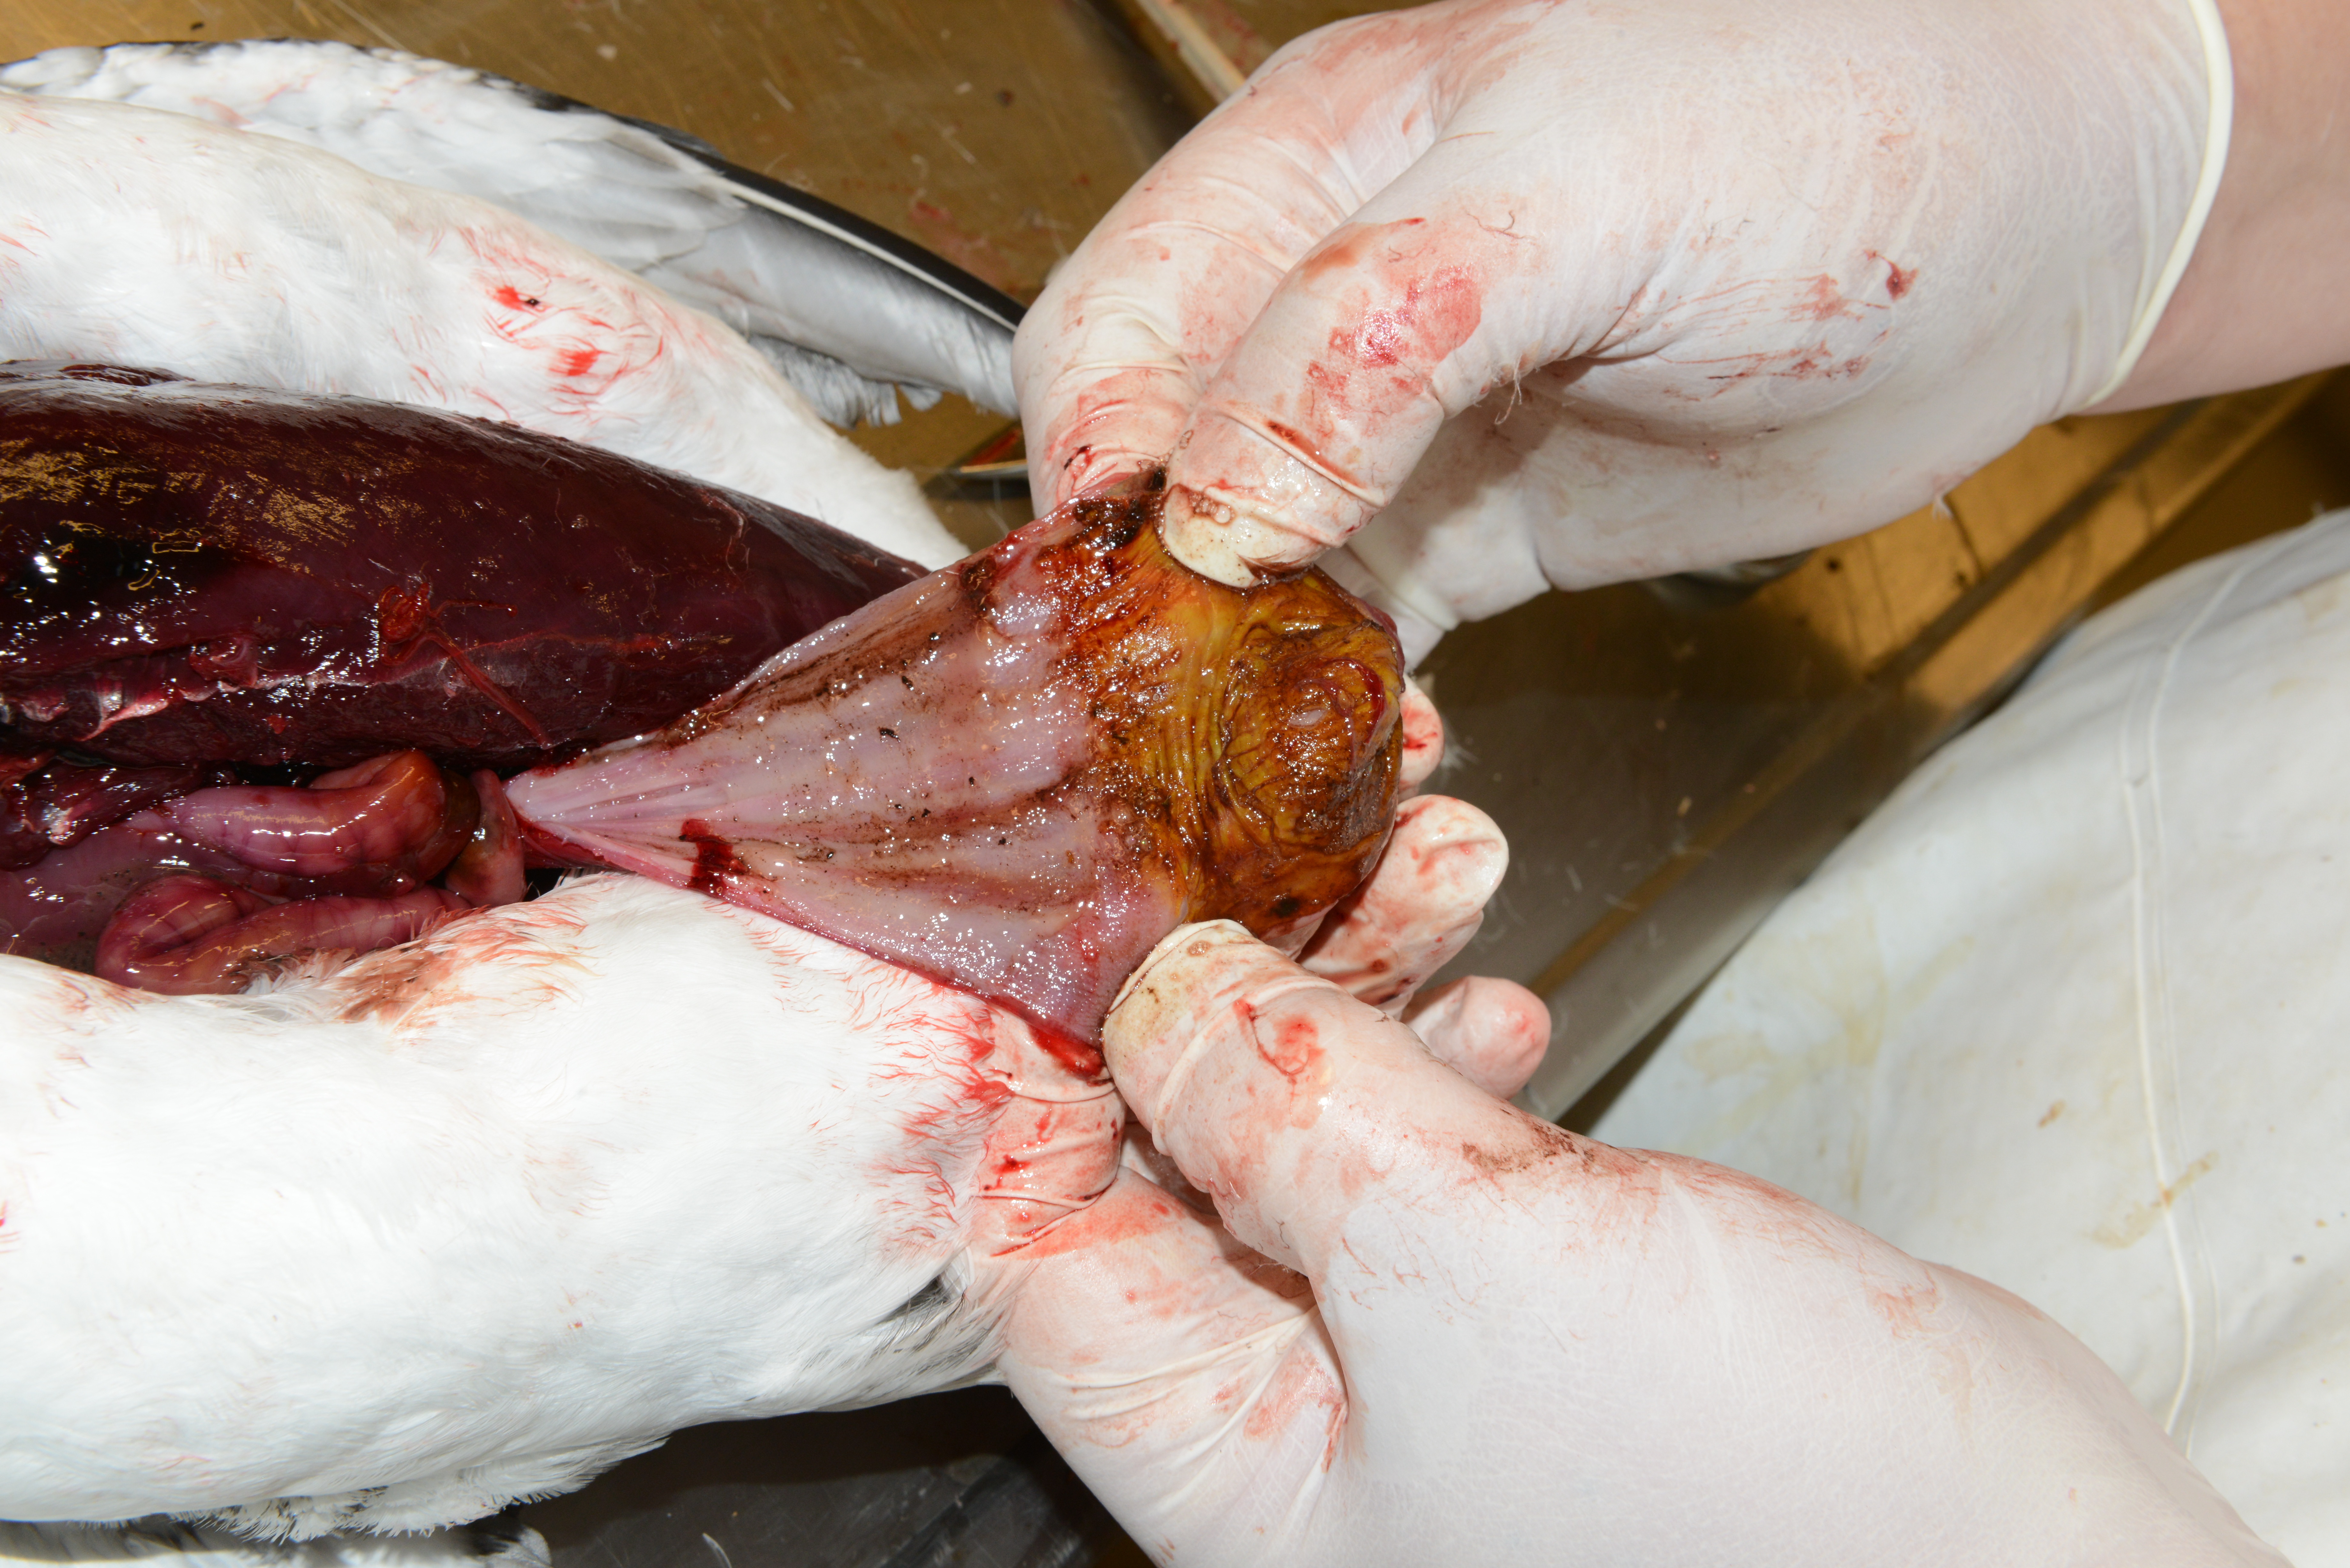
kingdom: Animalia
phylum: Chordata
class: Aves
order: Charadriiformes
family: Alcidae
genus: Uria
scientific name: Uria aalge
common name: Common murre
